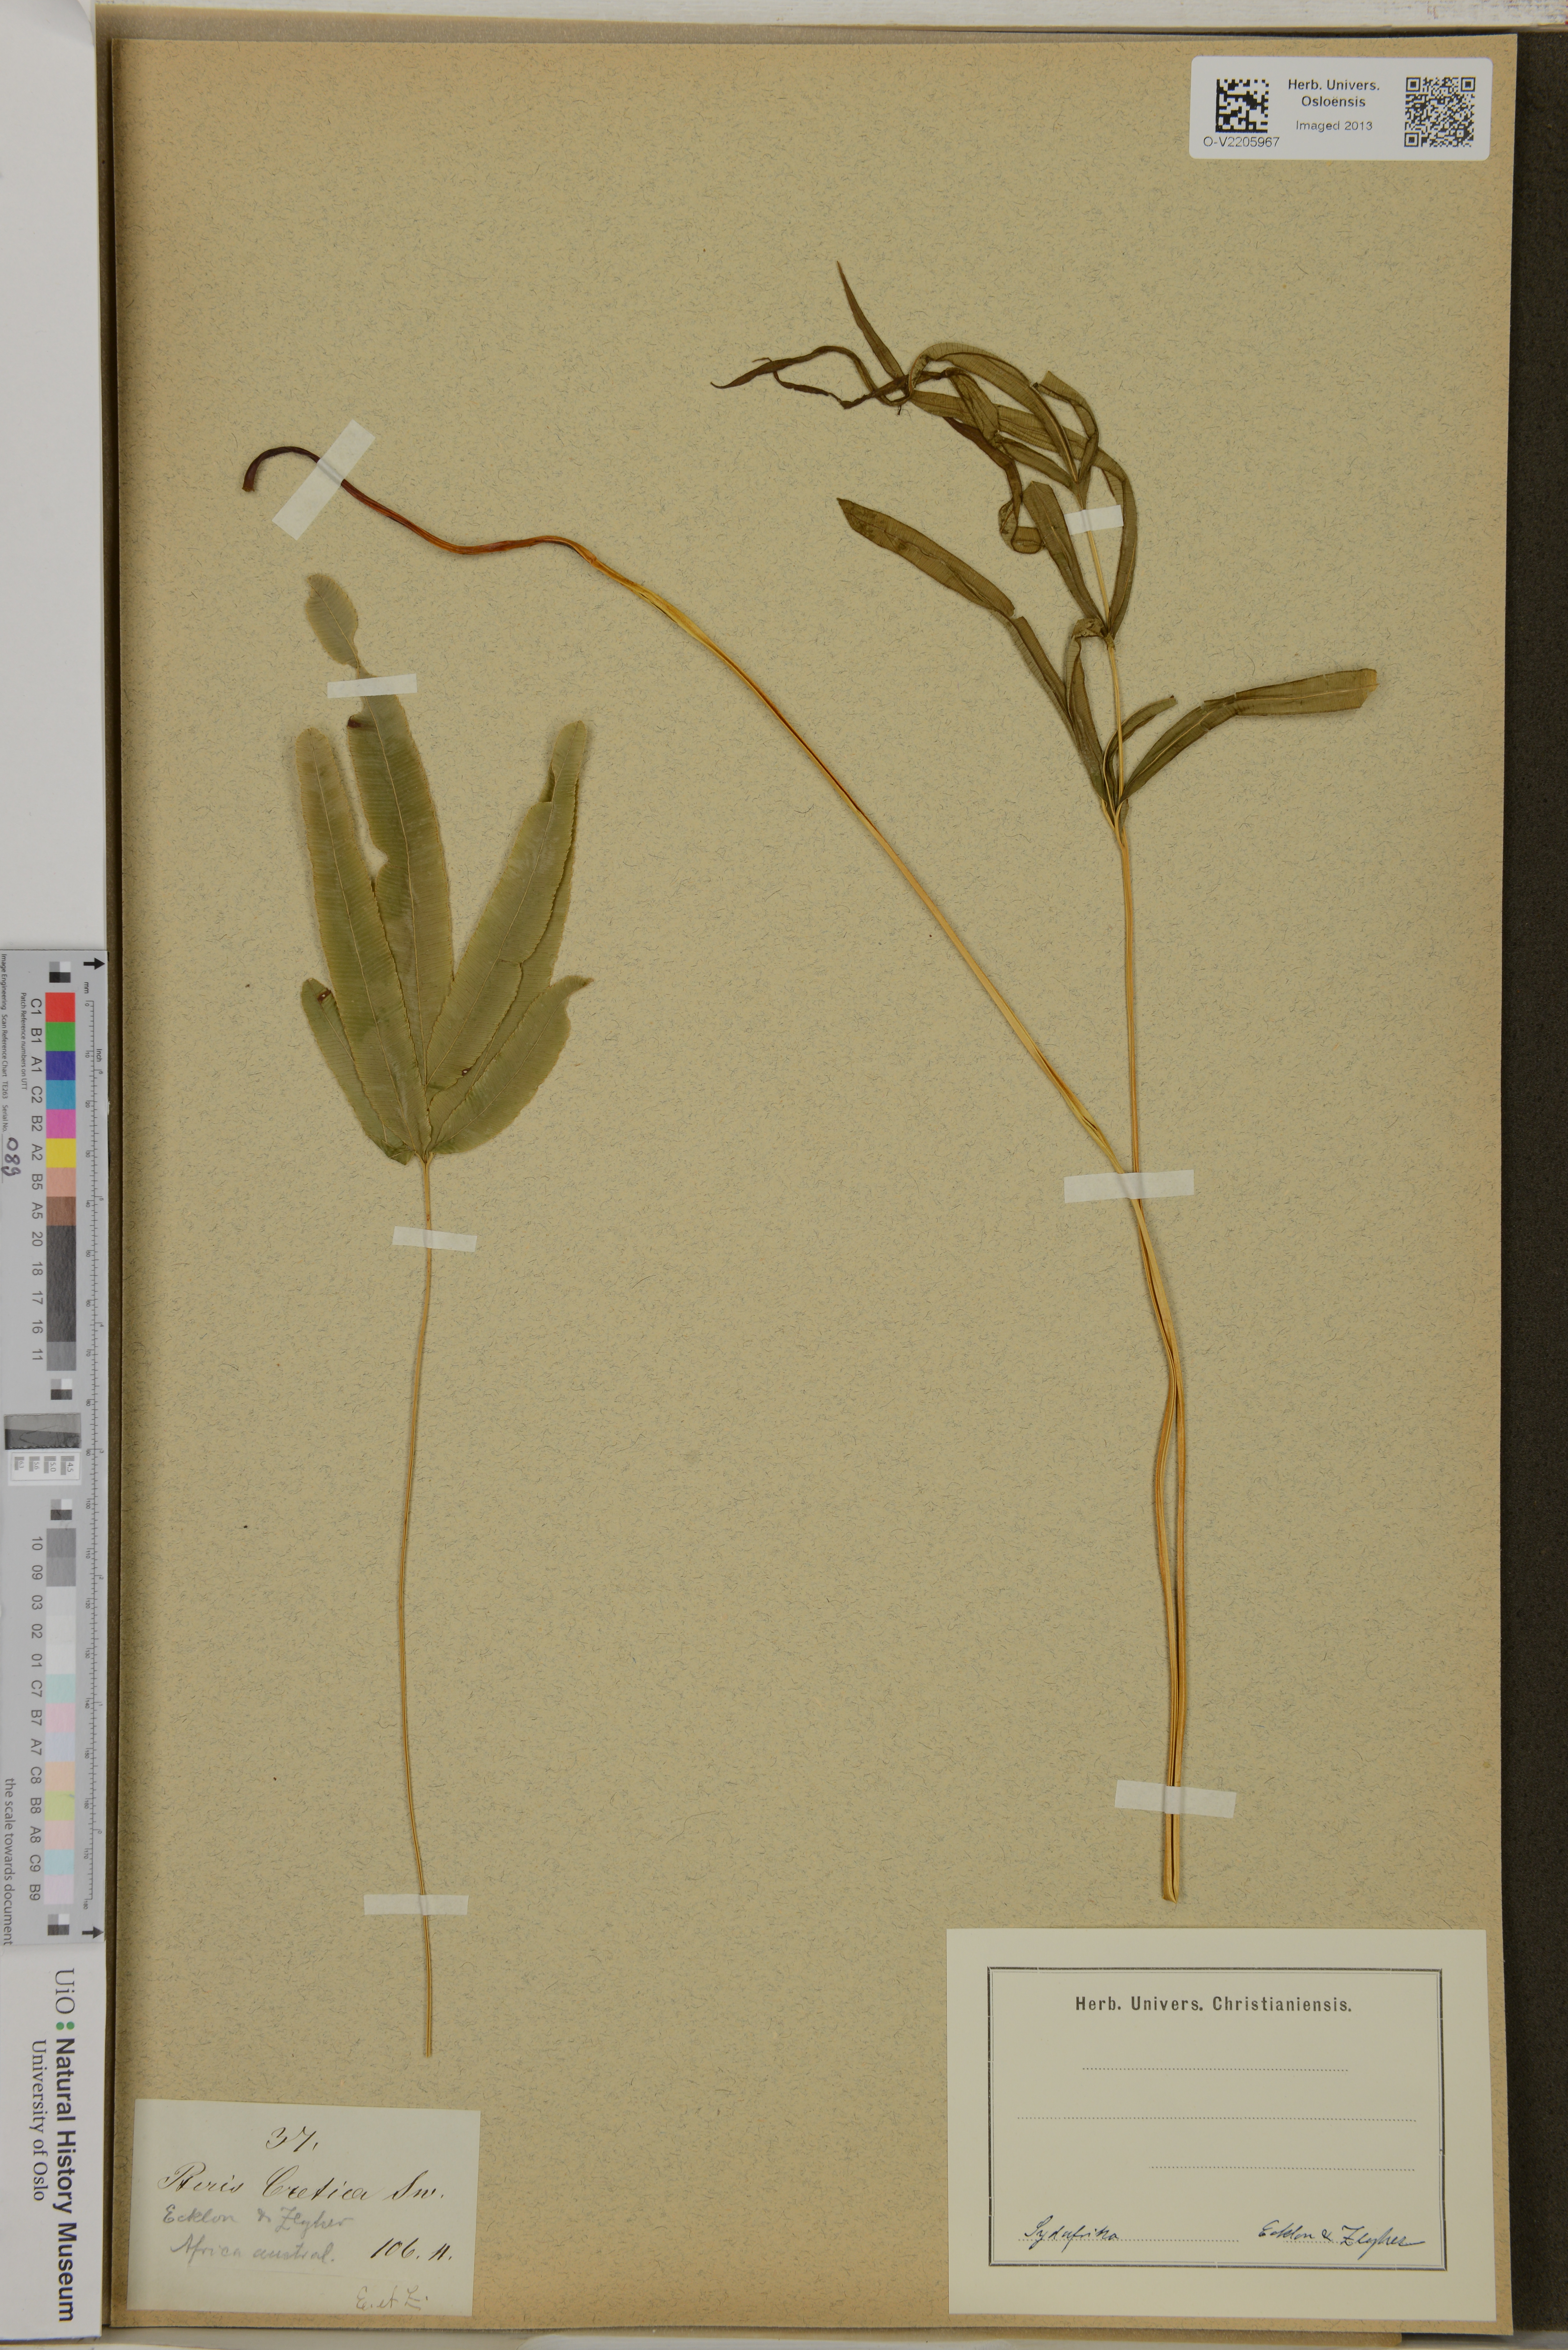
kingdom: Plantae
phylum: Tracheophyta
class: Polypodiopsida
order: Polypodiales
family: Pteridaceae
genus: Pteris
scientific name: Pteris cretica
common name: Ribbon fern
